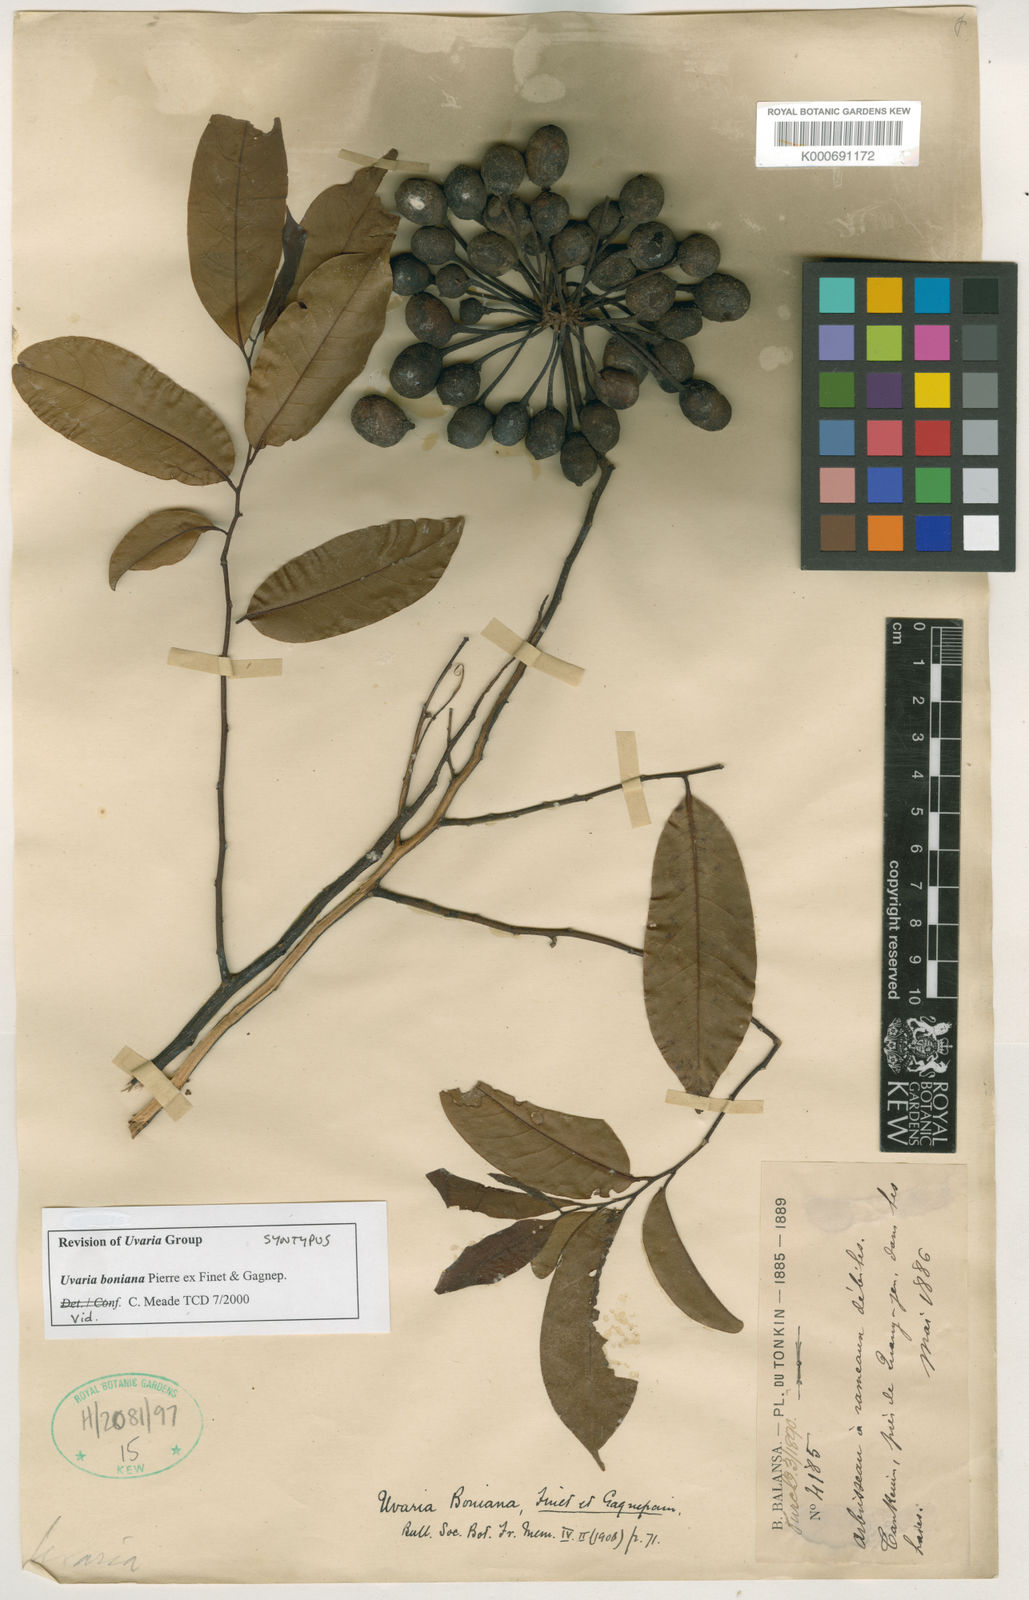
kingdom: Plantae
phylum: Tracheophyta
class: Magnoliopsida
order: Magnoliales
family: Annonaceae
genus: Uvaria
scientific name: Uvaria boniana
